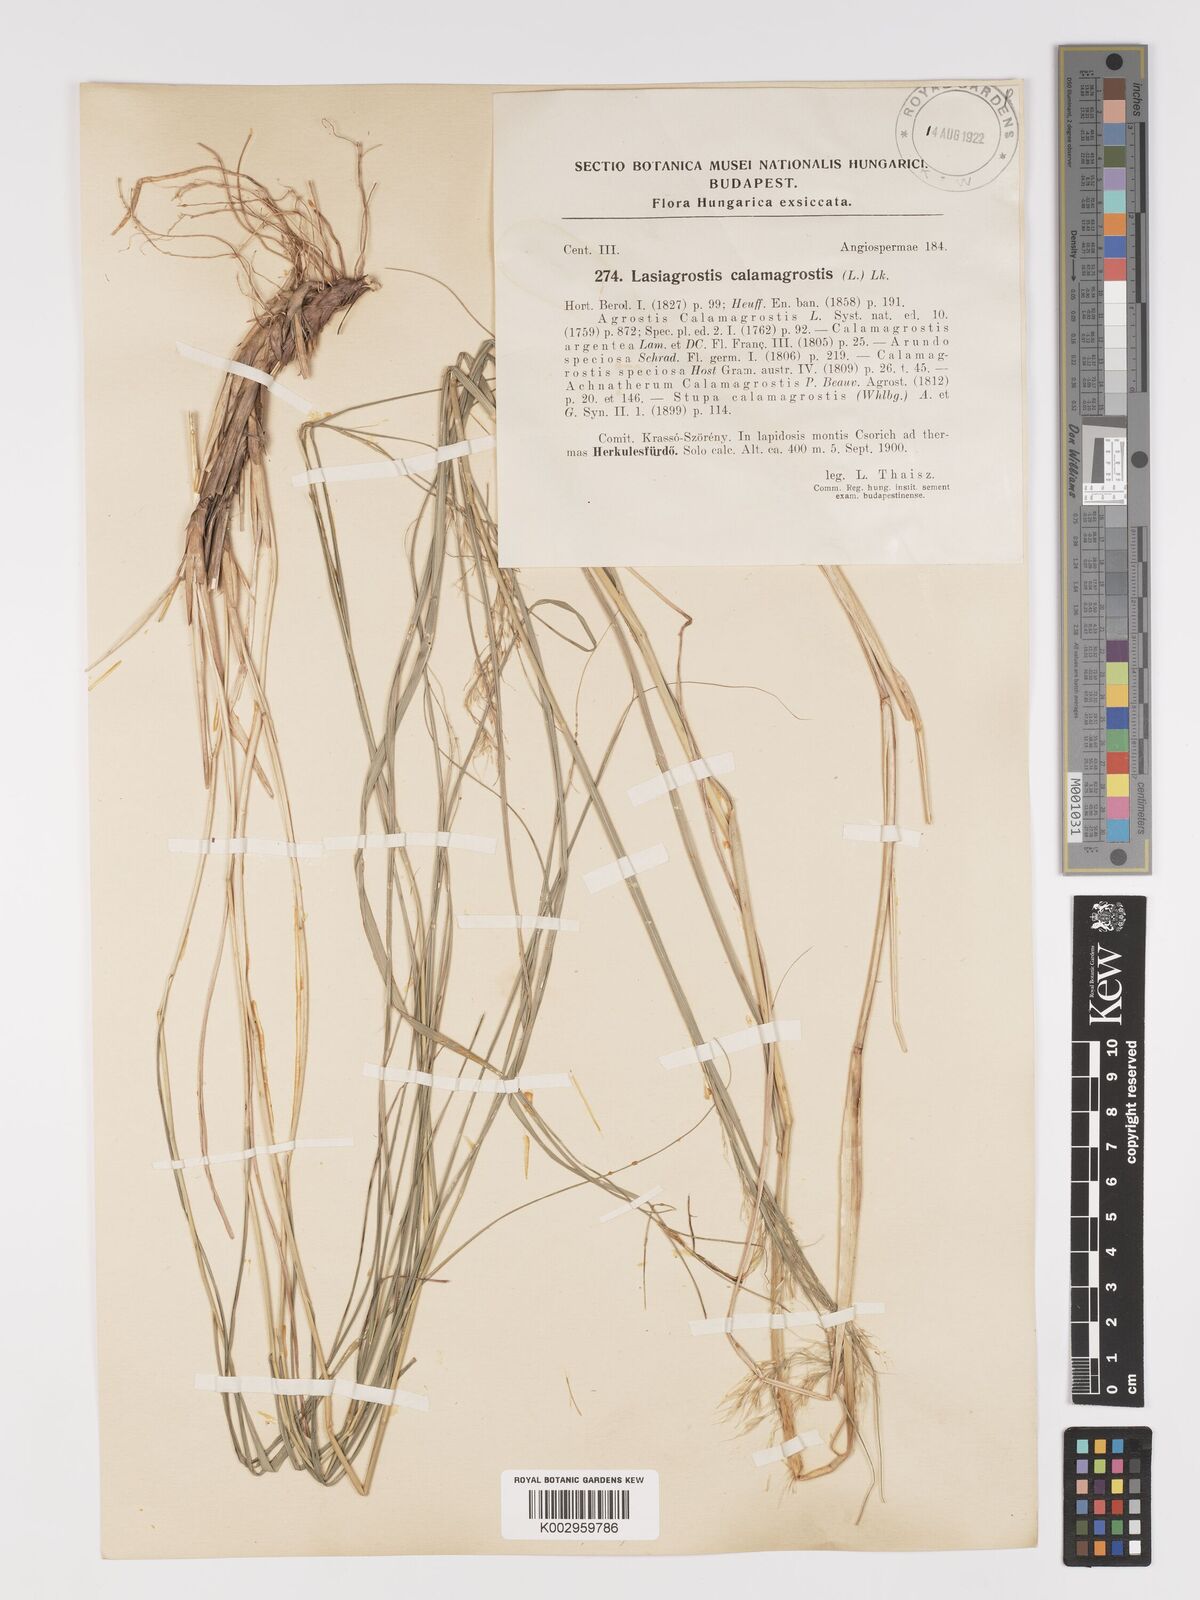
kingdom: Plantae
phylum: Tracheophyta
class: Liliopsida
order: Poales
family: Poaceae
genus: Achnatherum
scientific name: Achnatherum calamagrostis
